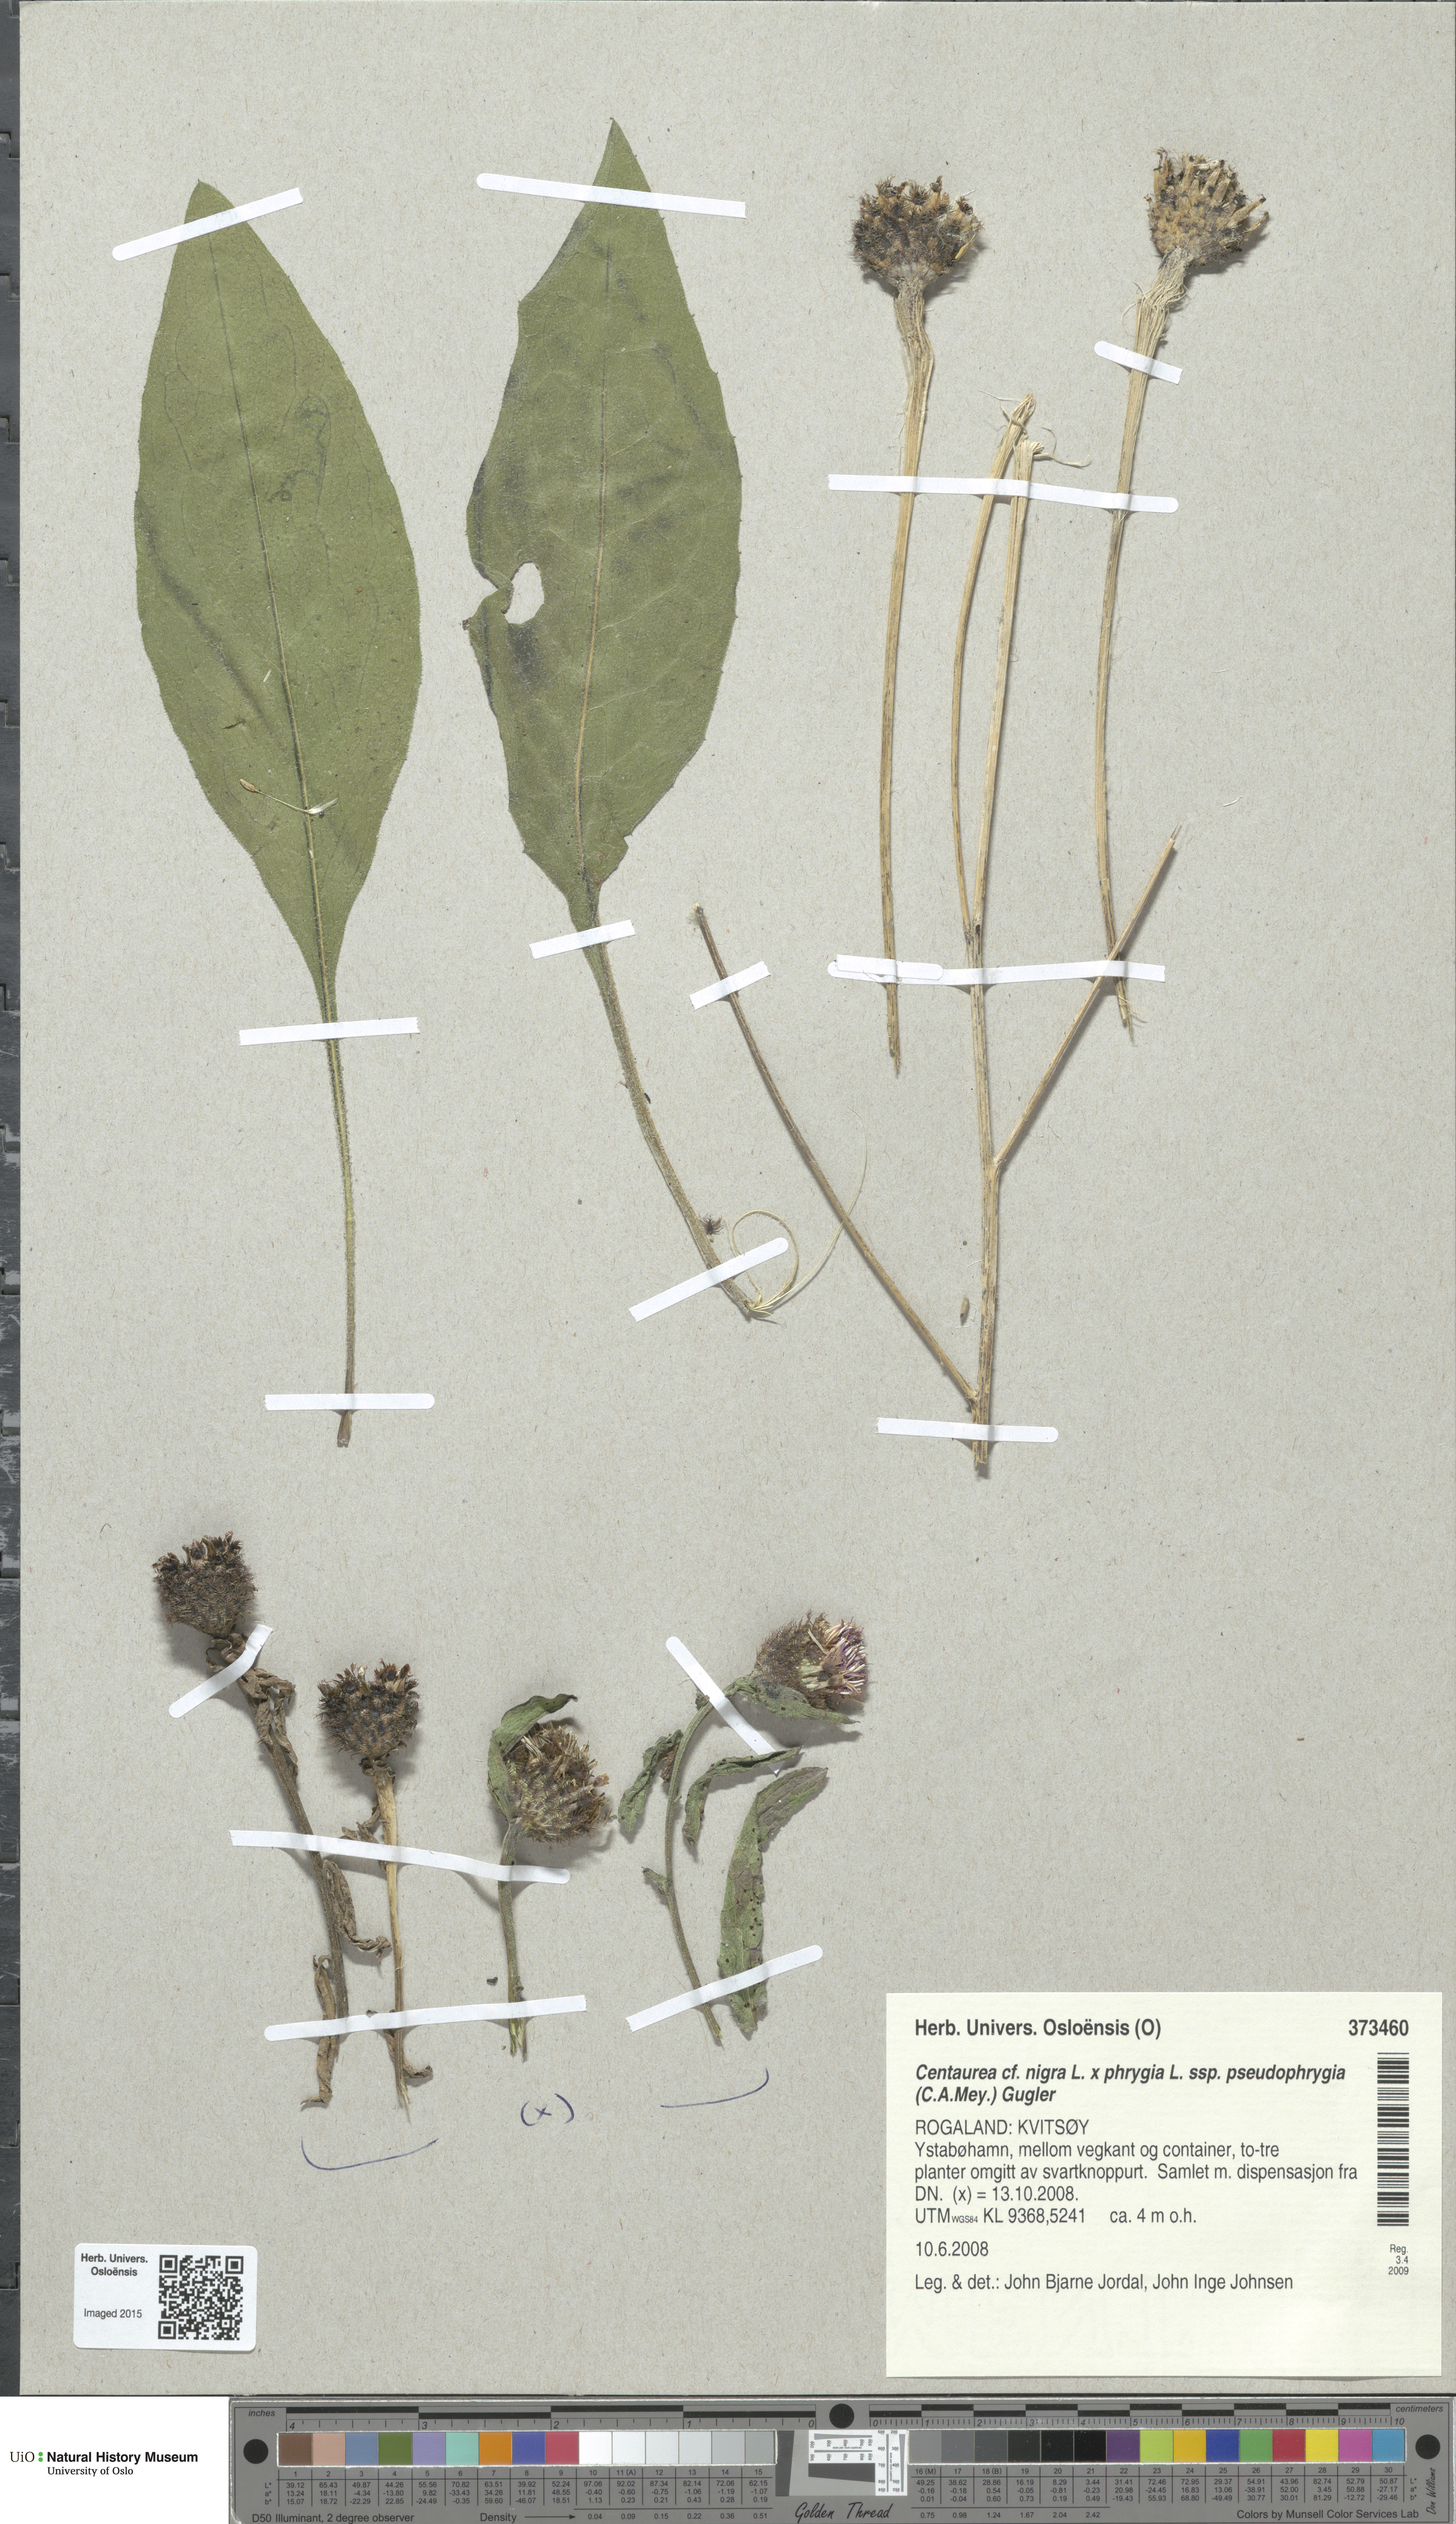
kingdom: Plantae
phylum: Tracheophyta
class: Magnoliopsida
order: Asterales
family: Asteraceae
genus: Centaurea
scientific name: Centaurea
